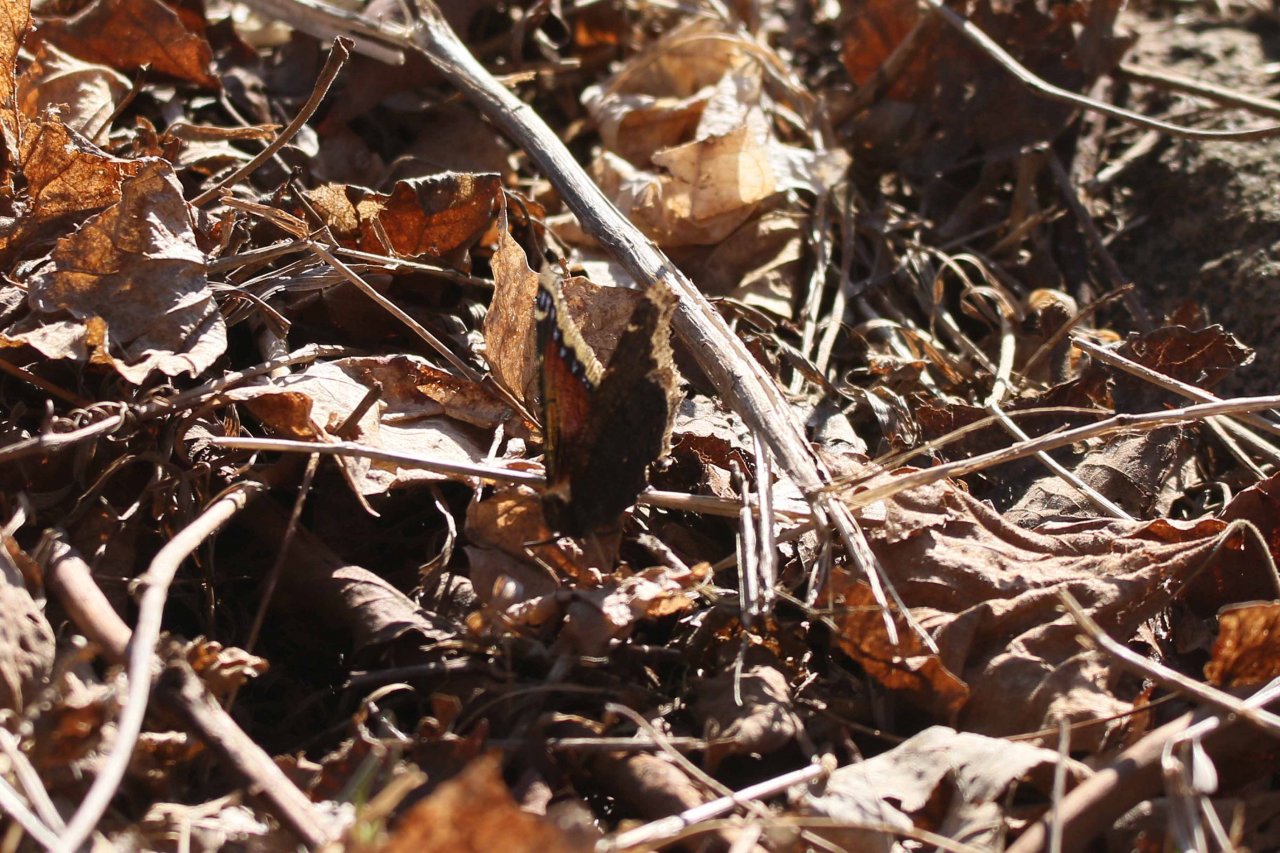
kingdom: Animalia
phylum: Arthropoda
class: Insecta
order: Lepidoptera
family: Nymphalidae
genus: Nymphalis
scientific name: Nymphalis antiopa
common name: Mourning Cloak
